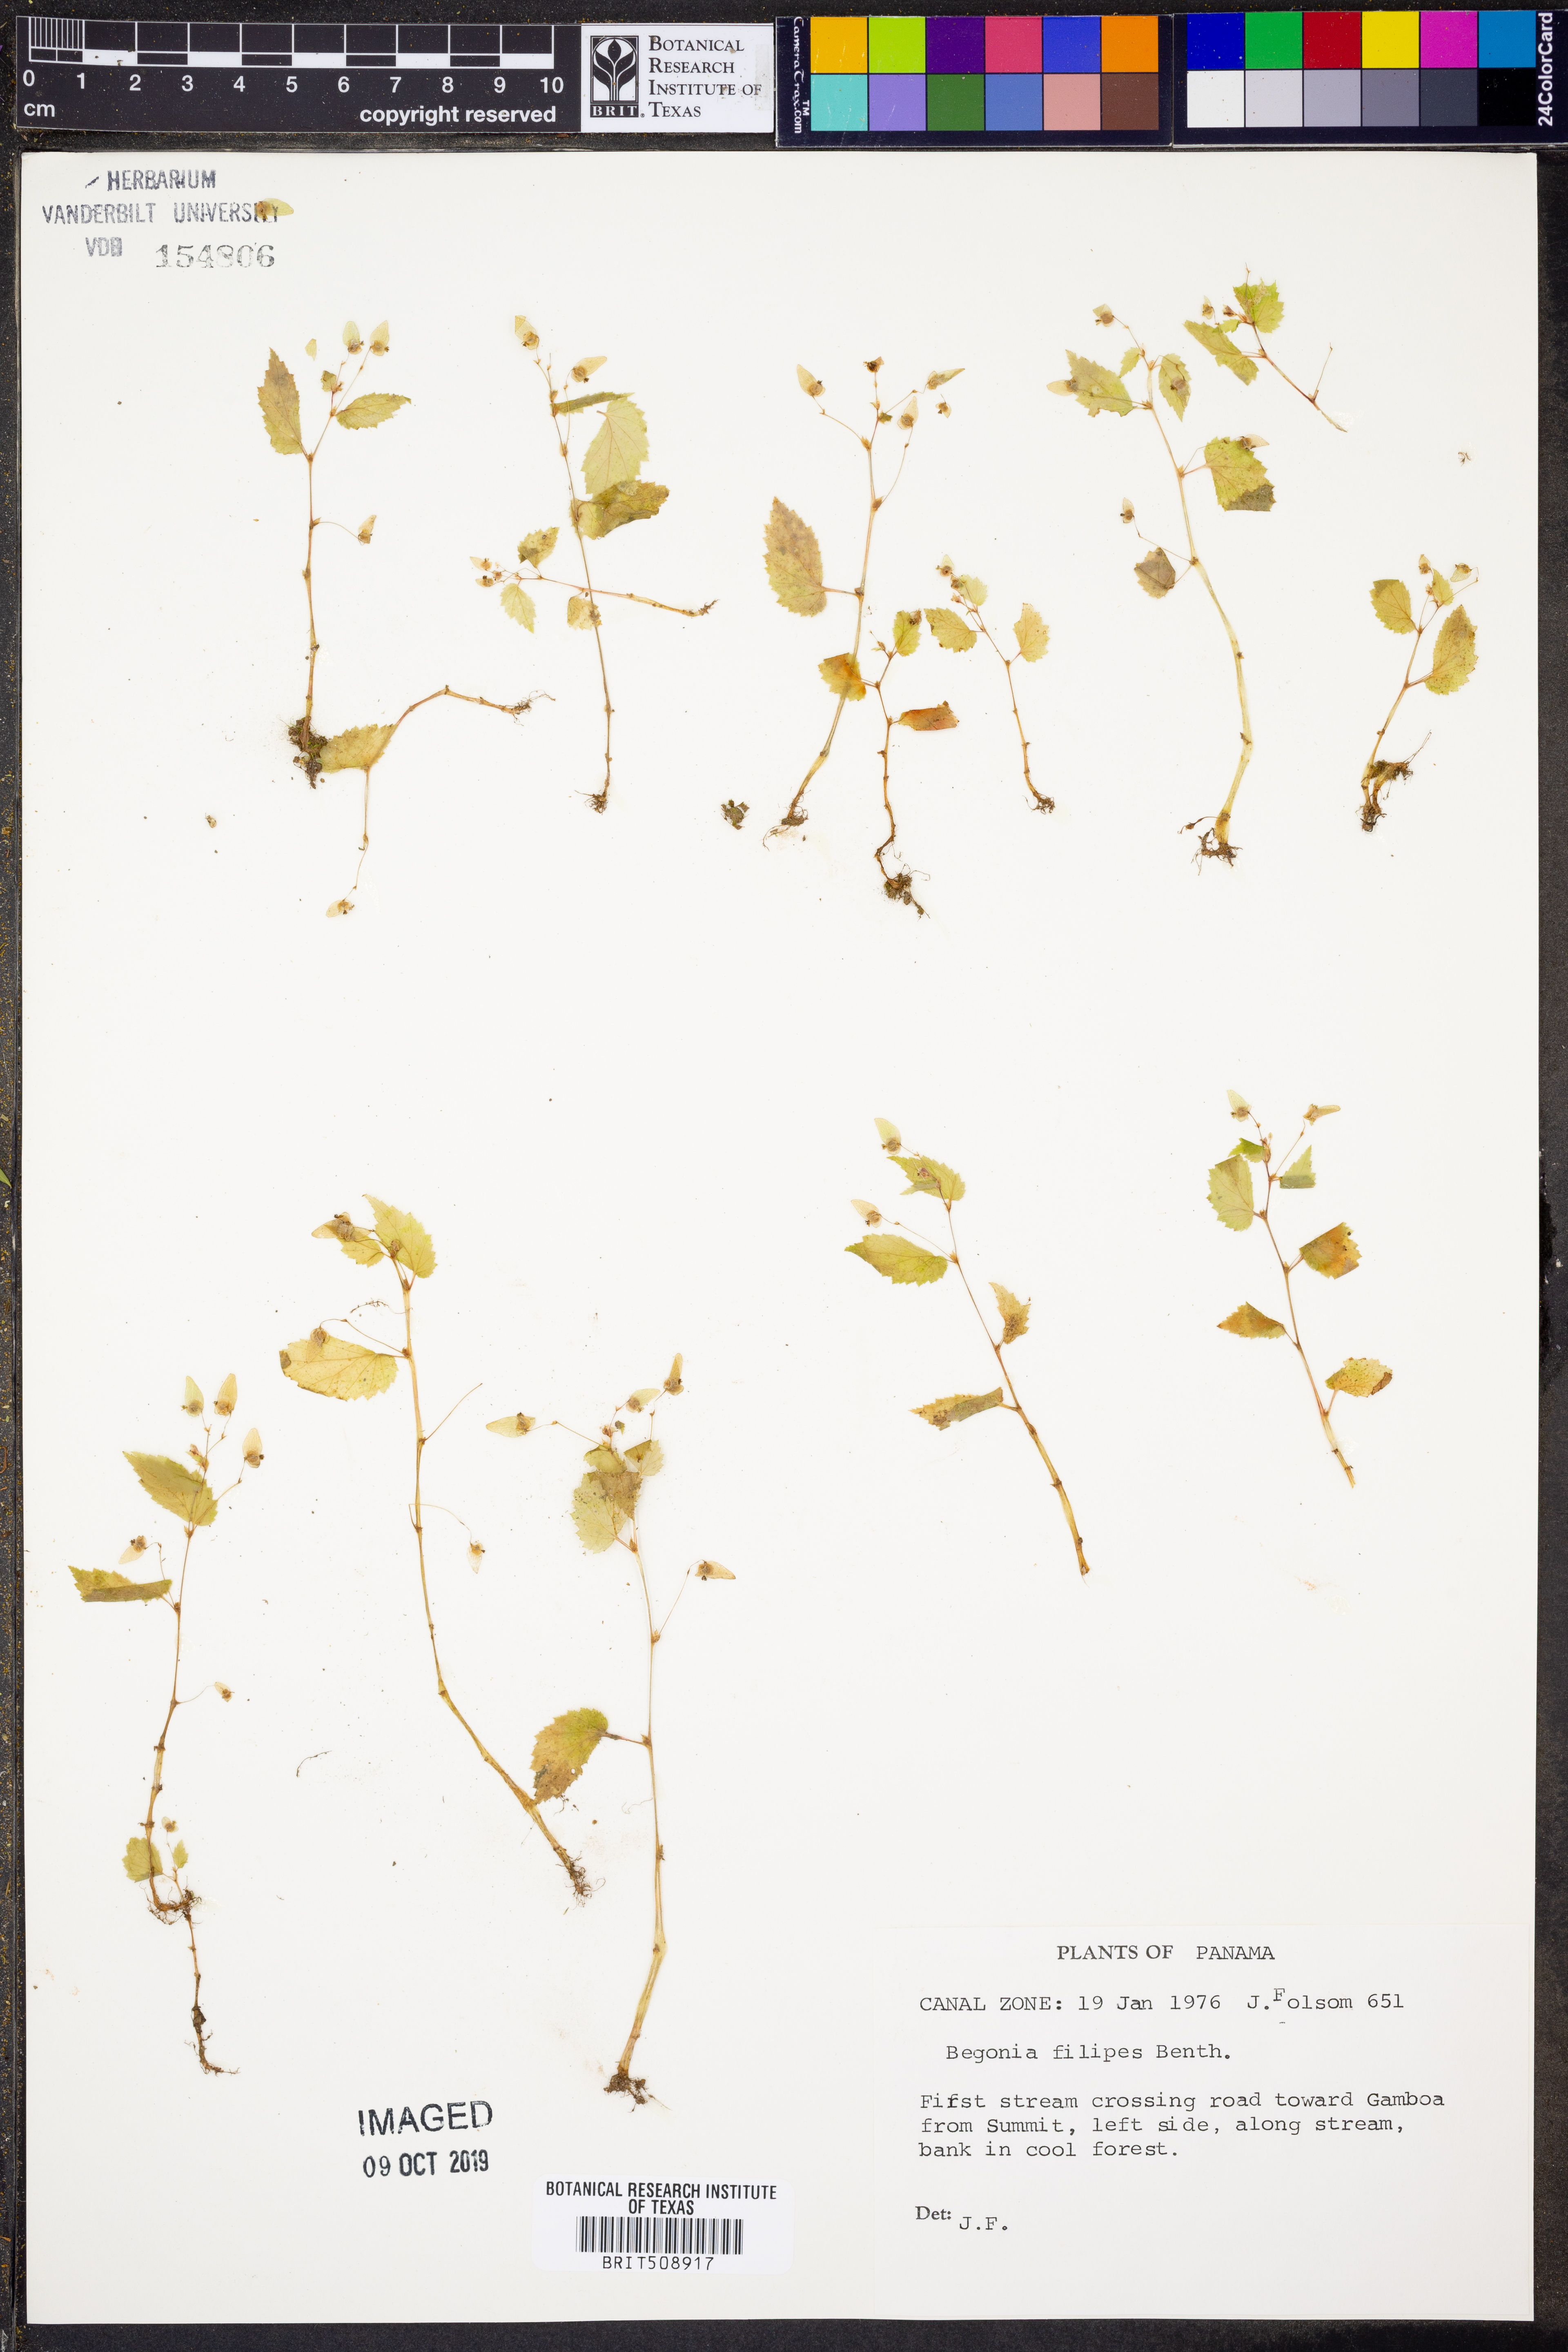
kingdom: Plantae
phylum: Tracheophyta
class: Magnoliopsida
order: Cucurbitales
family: Begoniaceae
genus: Begonia
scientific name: Begonia hirsuta
